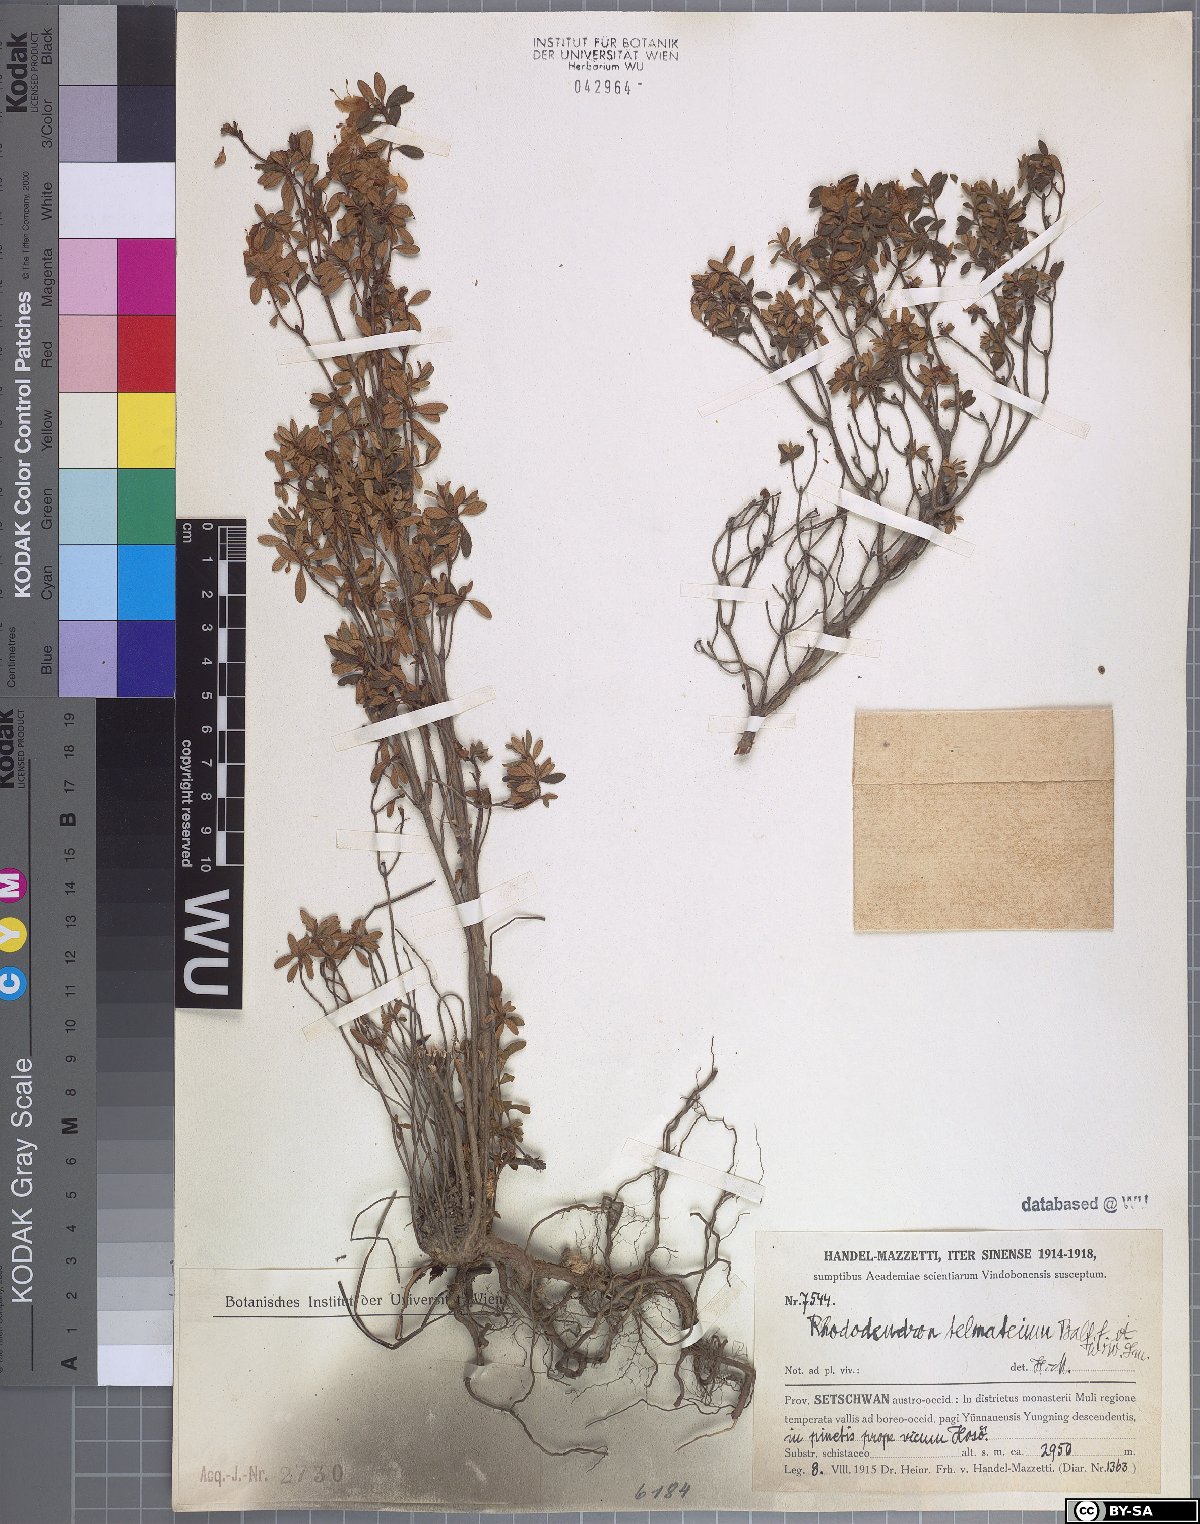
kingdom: Plantae
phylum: Tracheophyta
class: Magnoliopsida
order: Ericales
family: Ericaceae
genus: Rhododendron
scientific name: Rhododendron telmateium
